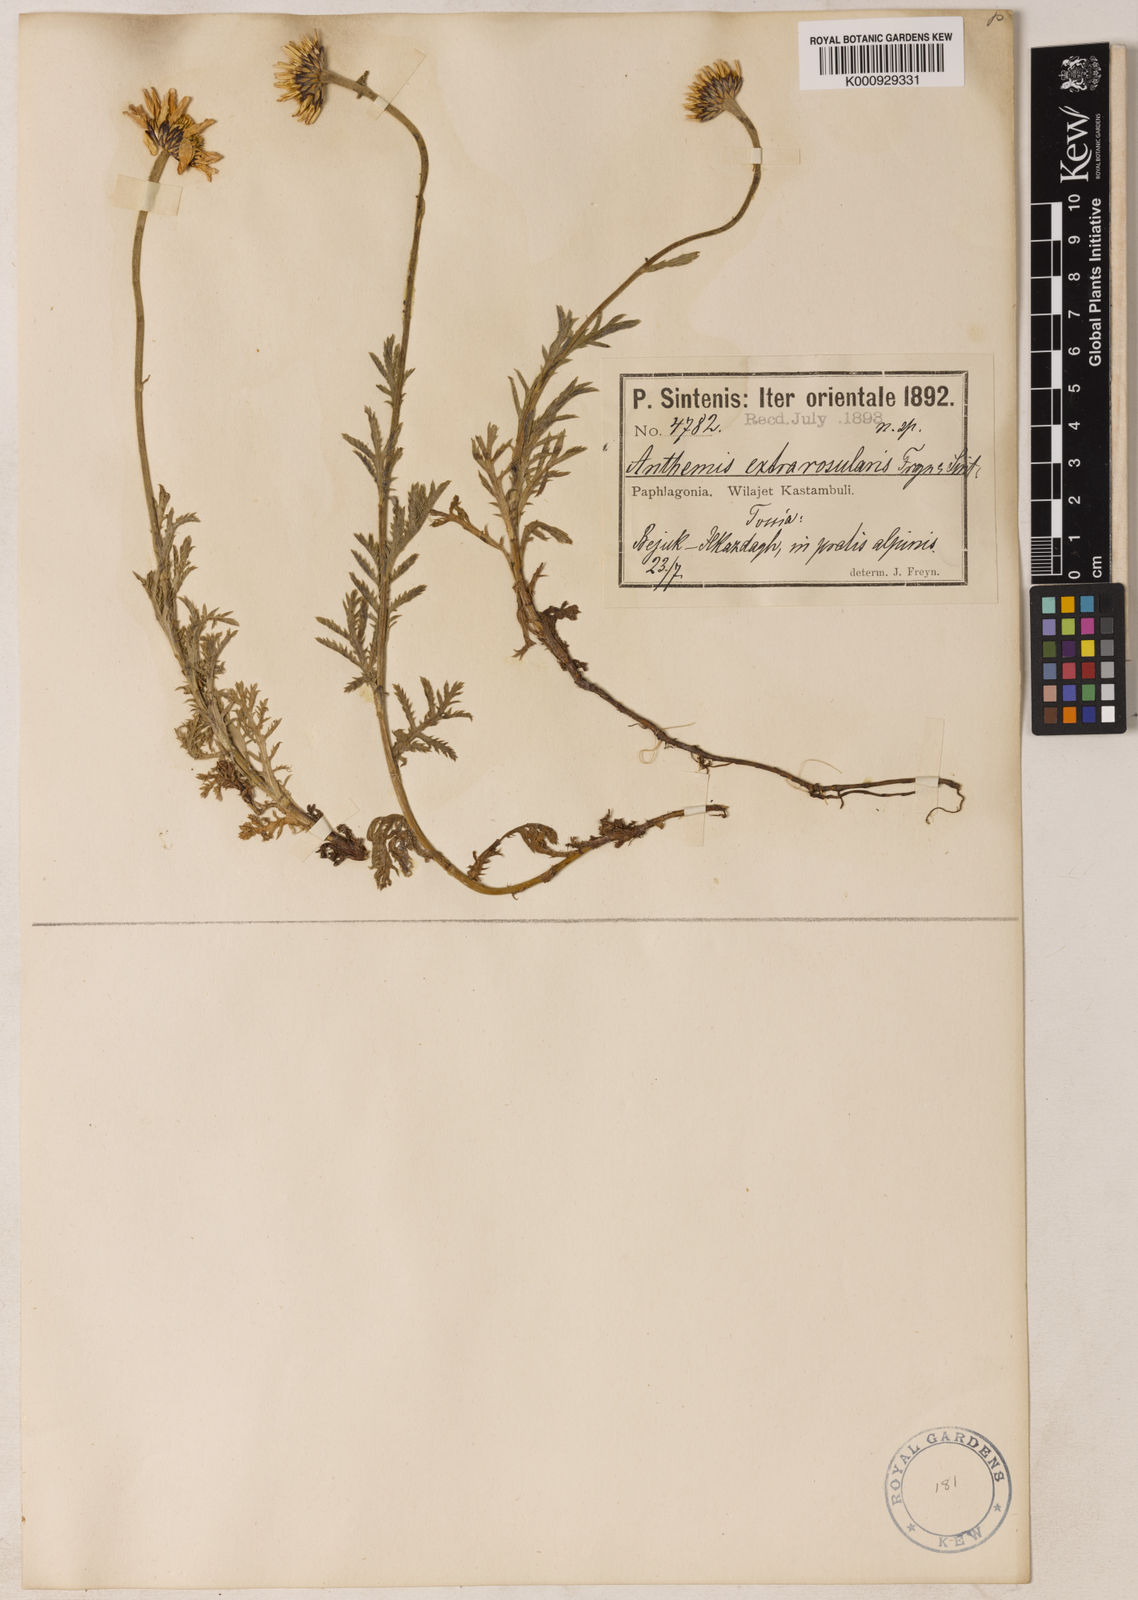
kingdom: Plantae
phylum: Tracheophyta
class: Magnoliopsida
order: Asterales
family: Asteraceae
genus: Cota
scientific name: Cota melanoloma
